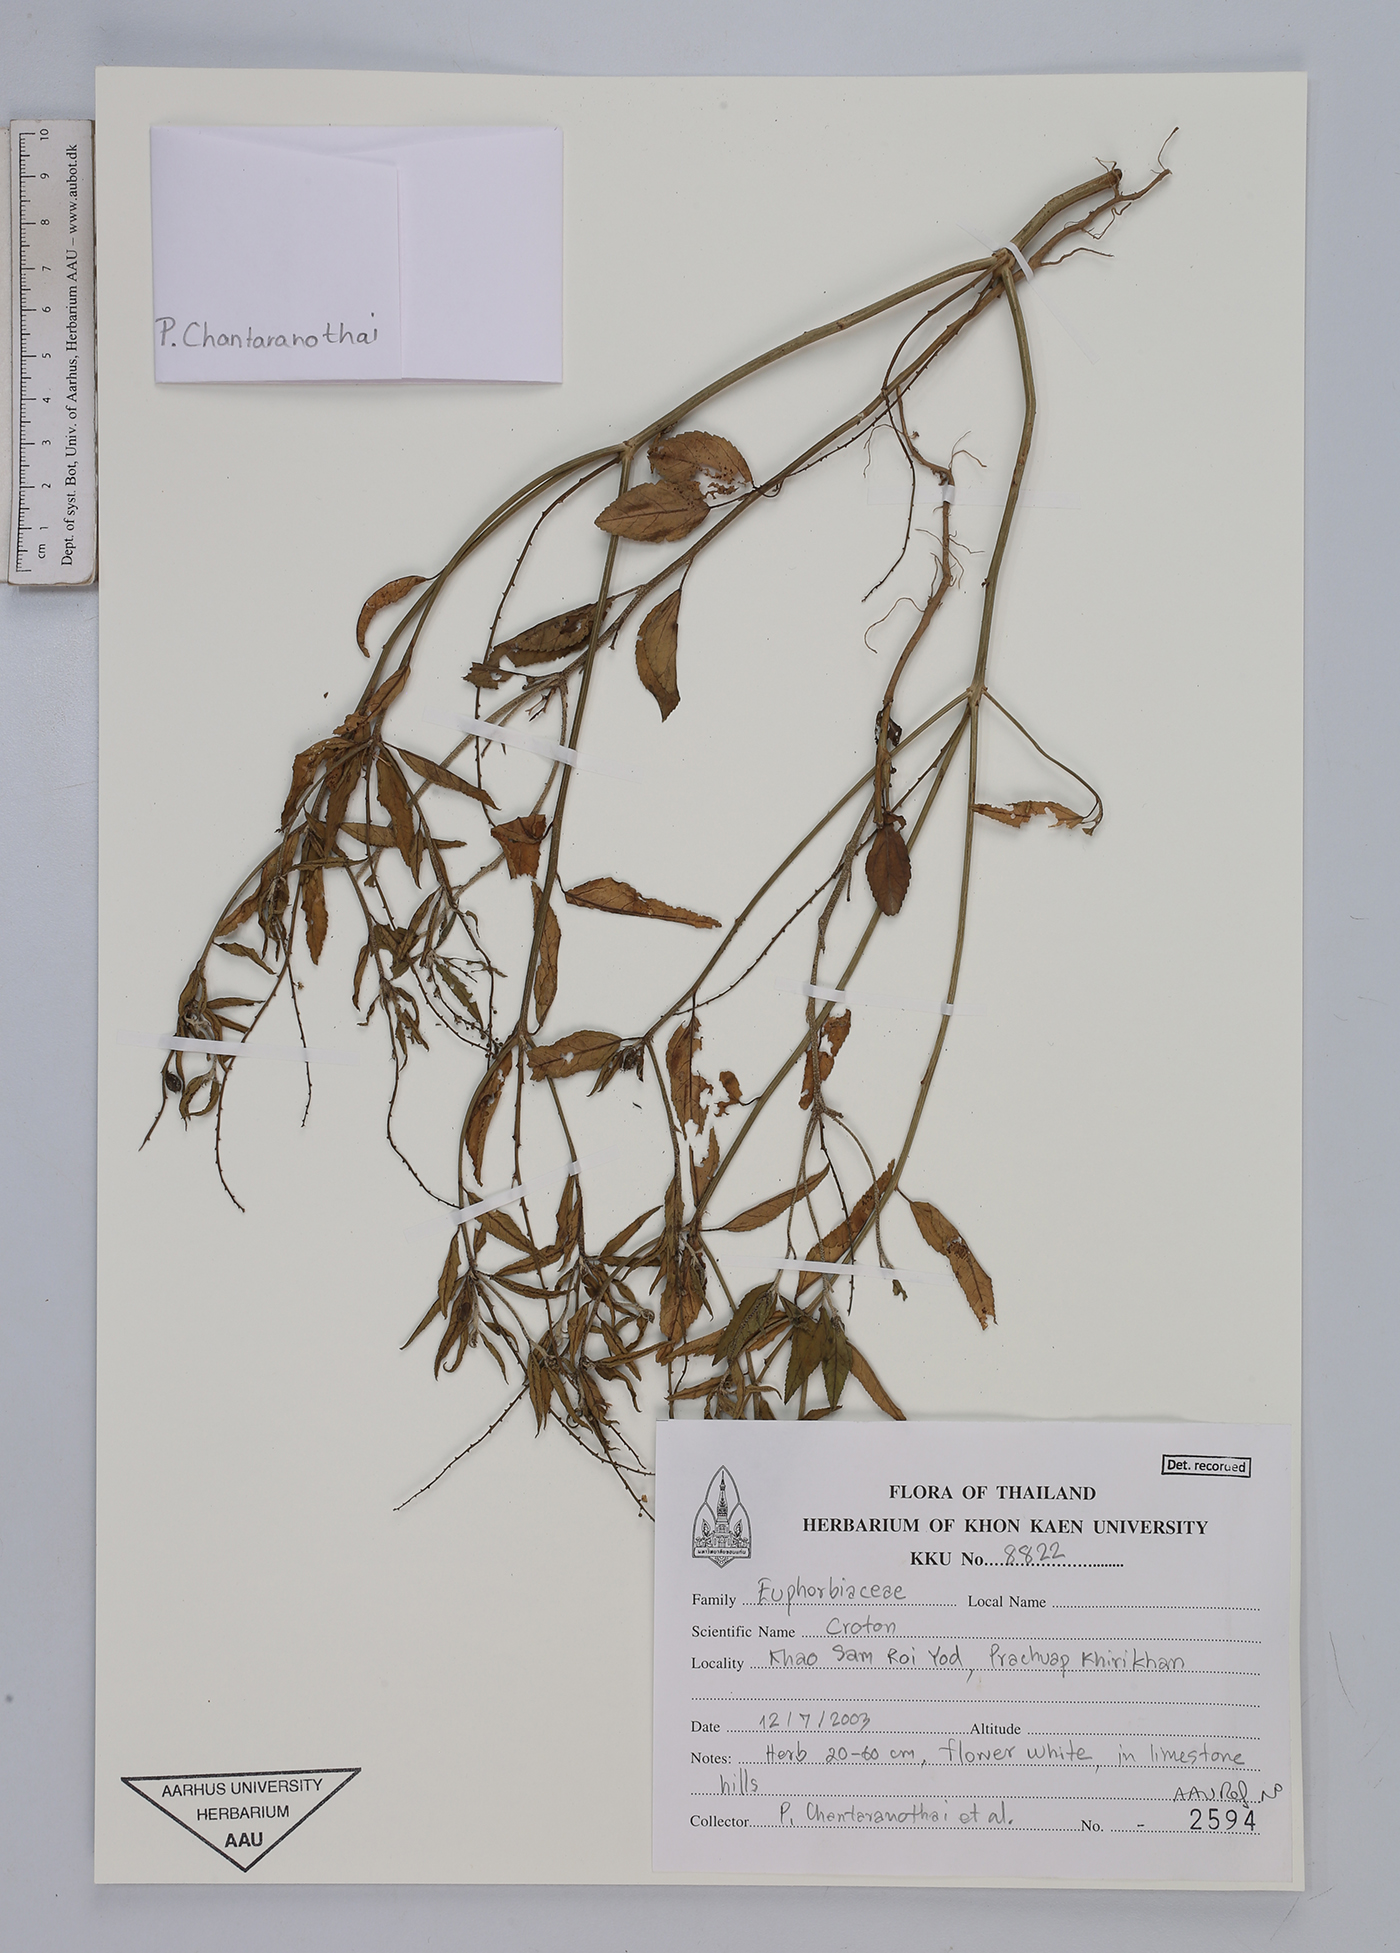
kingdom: Plantae
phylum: Tracheophyta
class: Magnoliopsida
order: Malpighiales
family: Euphorbiaceae
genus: Croton
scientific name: Croton
